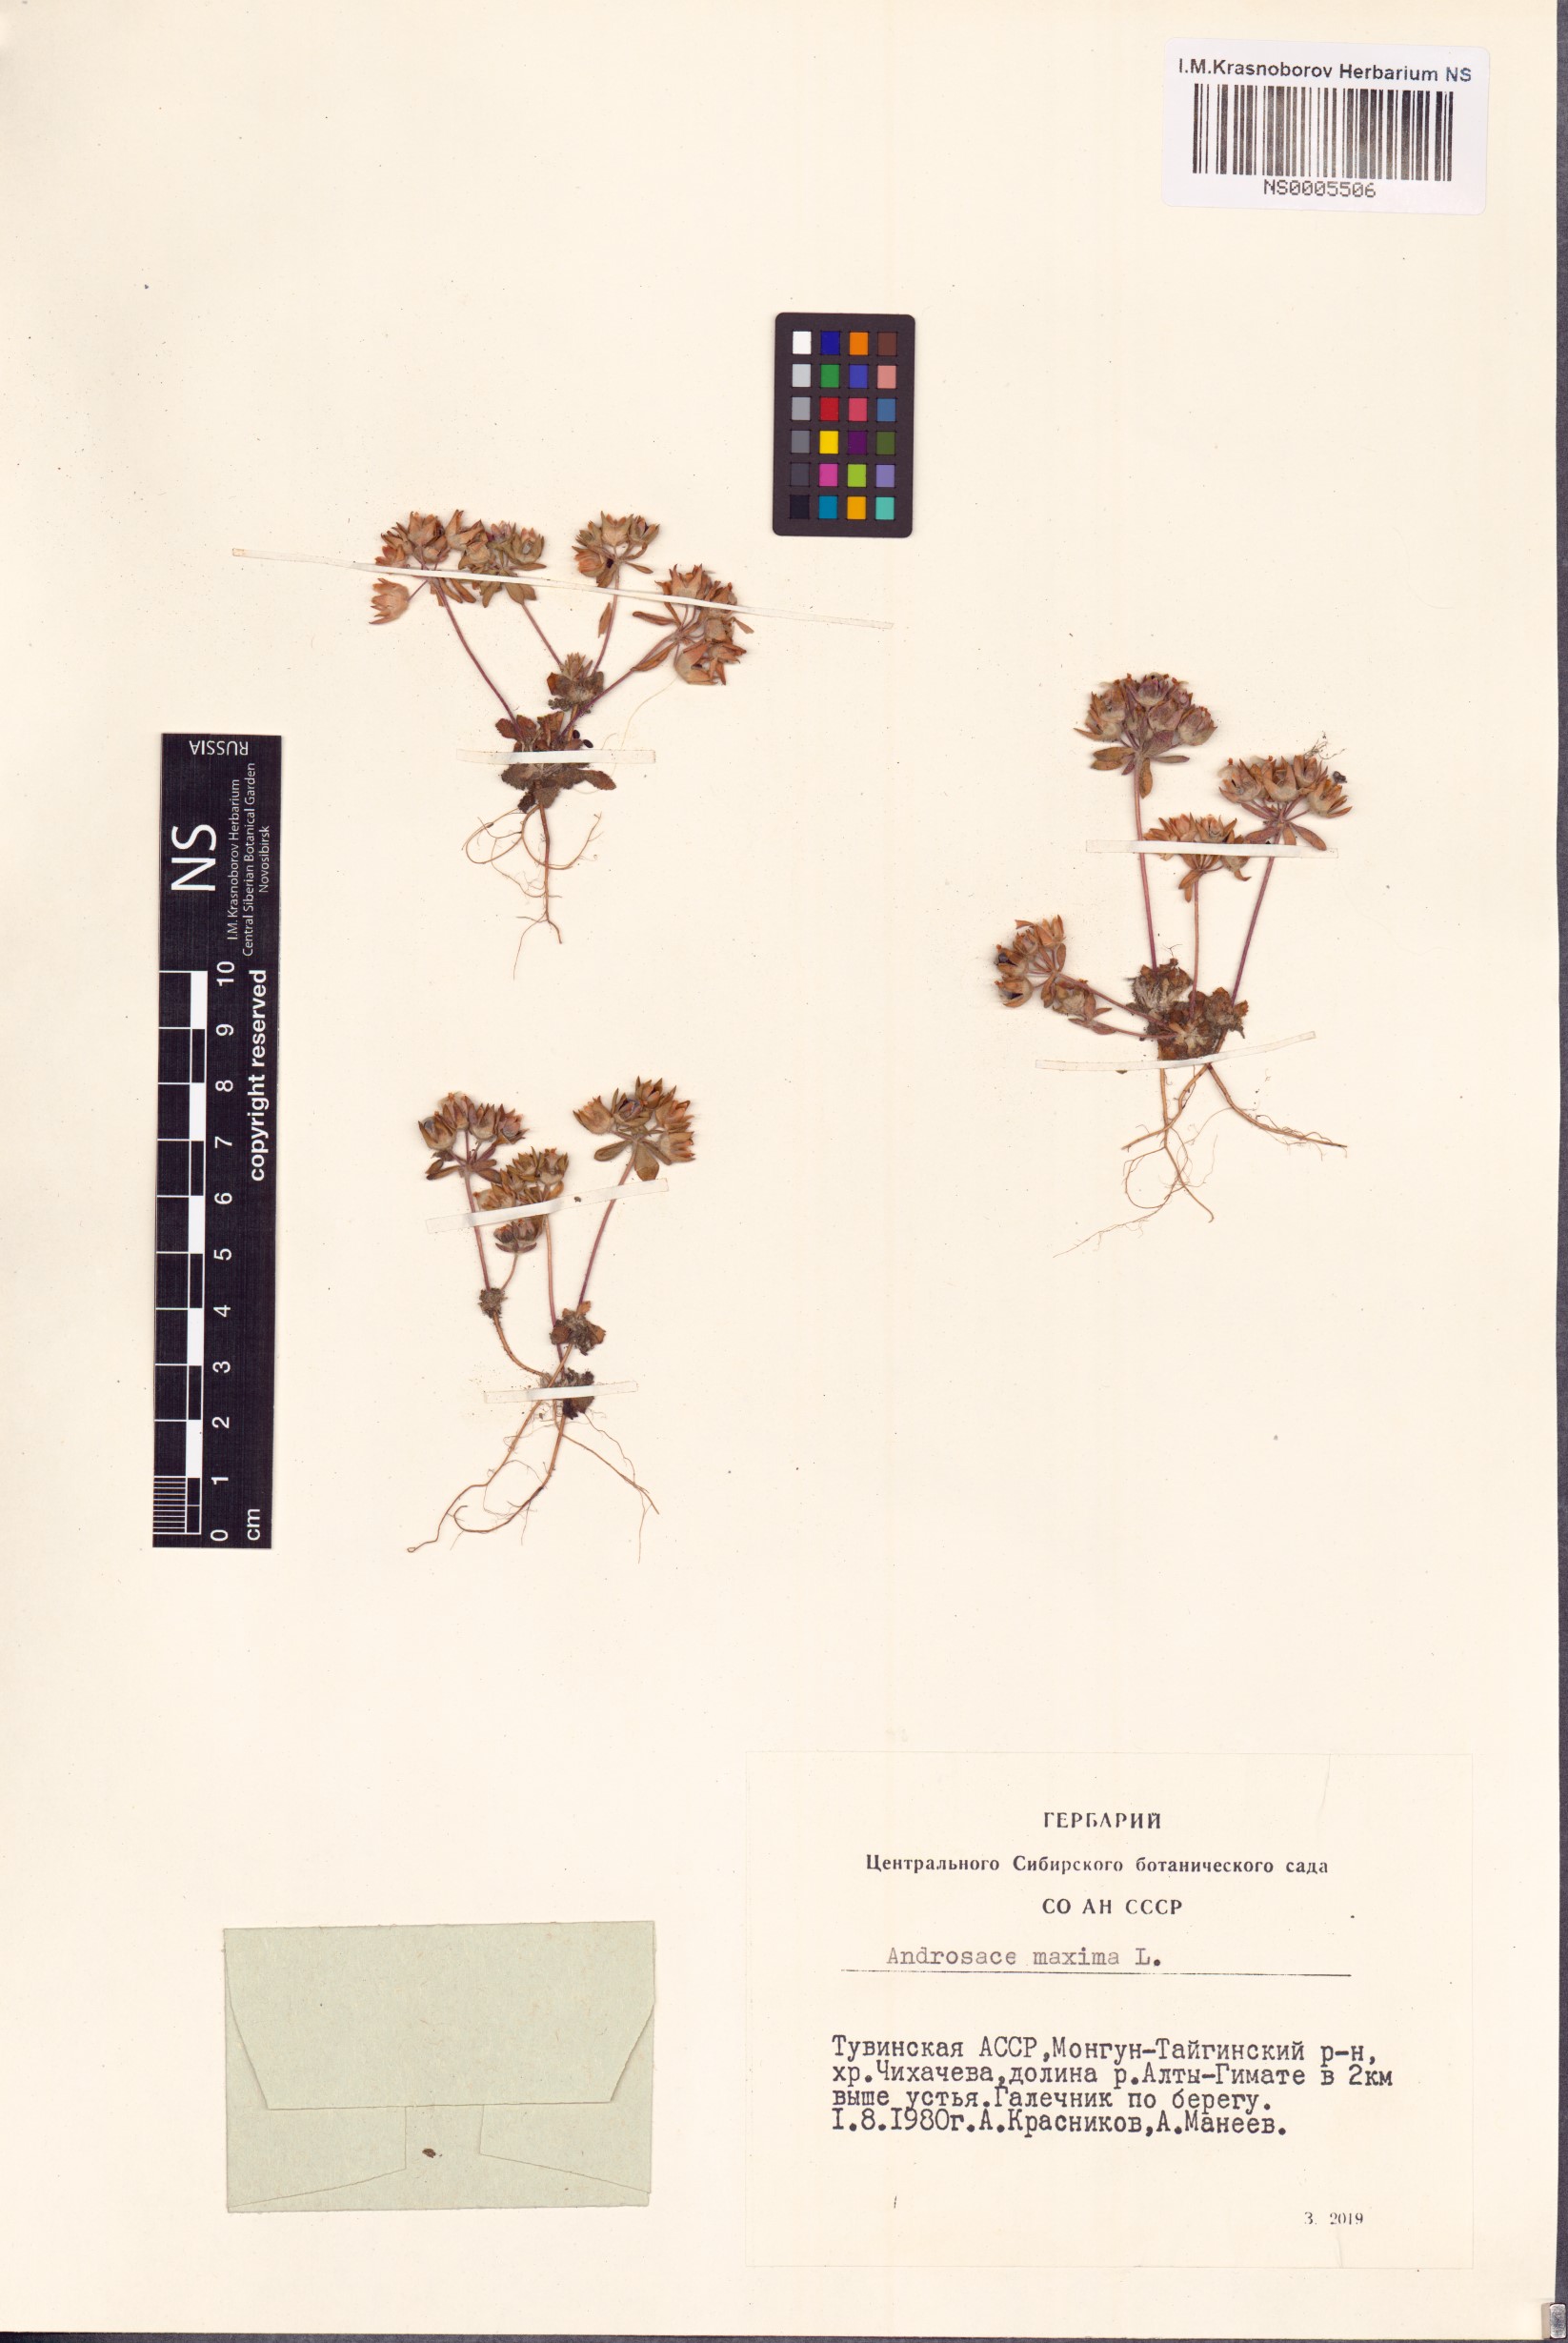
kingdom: Plantae
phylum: Tracheophyta
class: Magnoliopsida
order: Ericales
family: Primulaceae
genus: Androsace
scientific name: Androsace maxima
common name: Annual androsace
